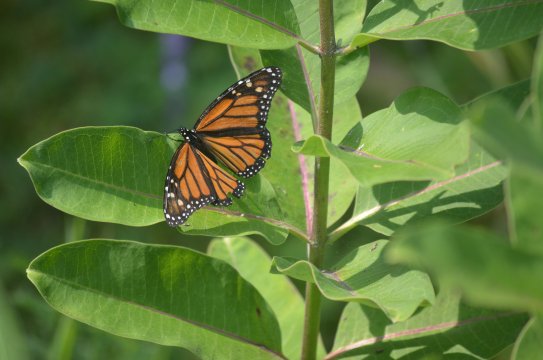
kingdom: Animalia
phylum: Arthropoda
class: Insecta
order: Lepidoptera
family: Nymphalidae
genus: Danaus
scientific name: Danaus plexippus
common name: Monarch
